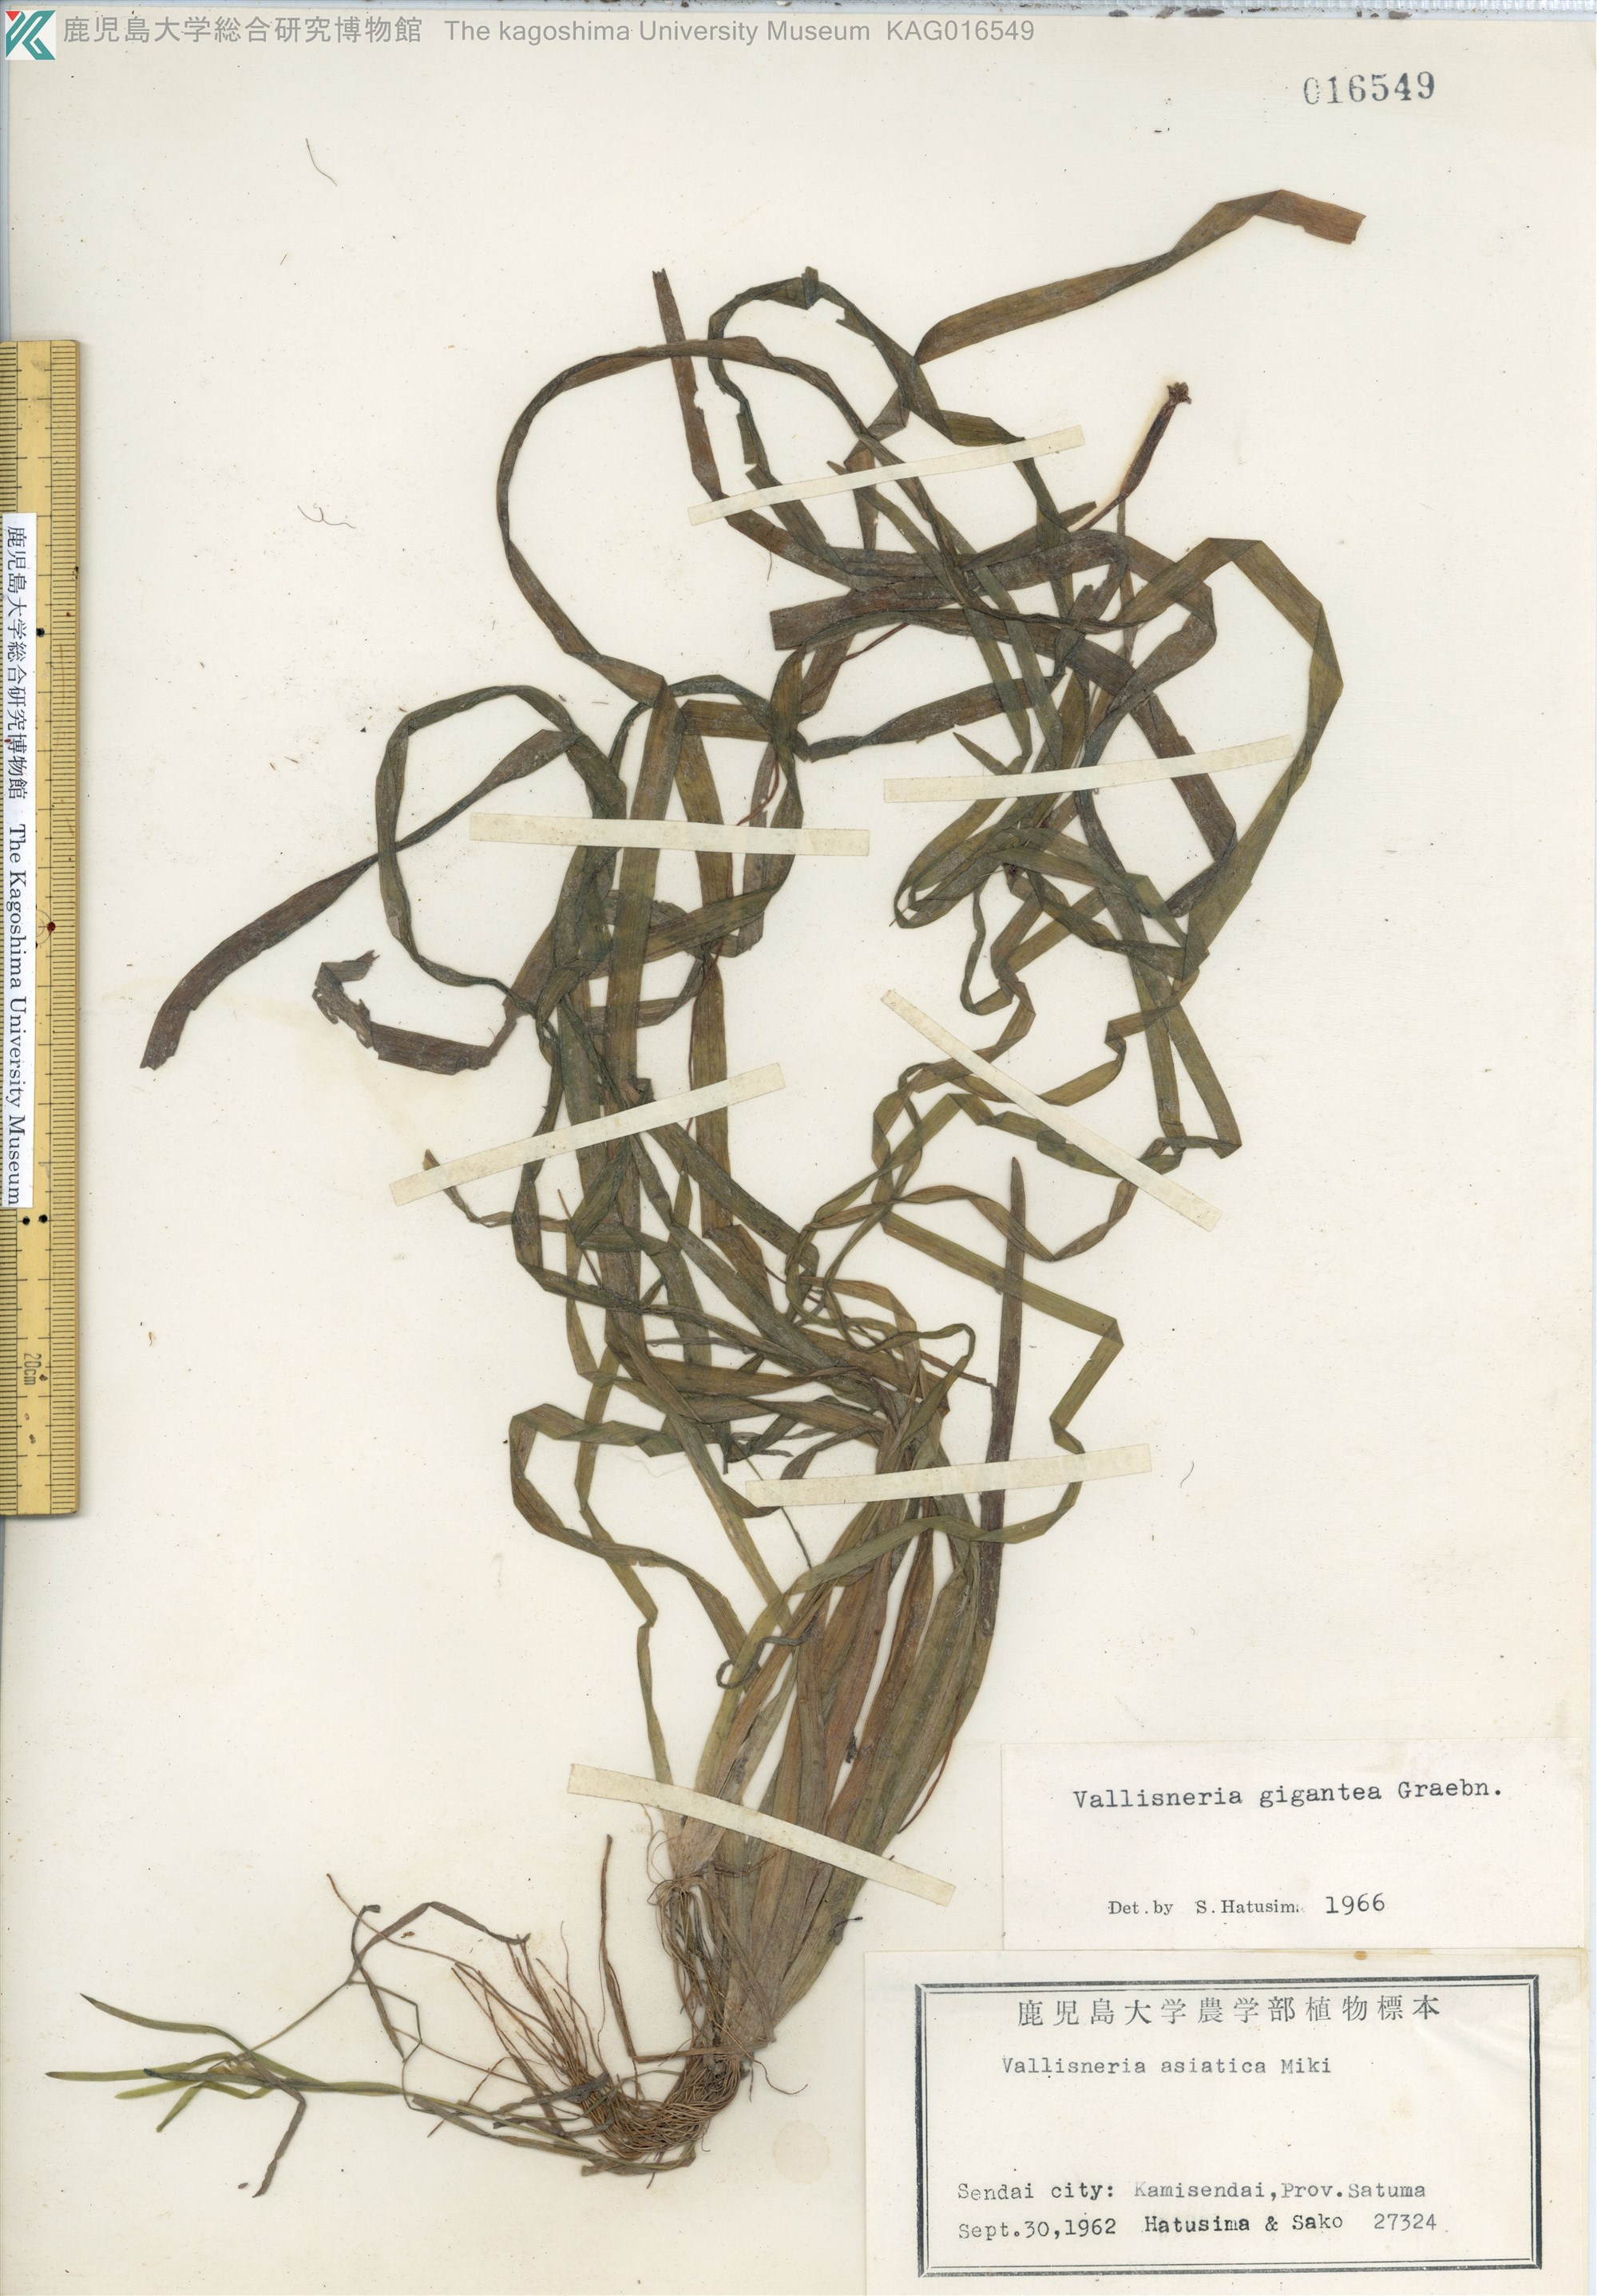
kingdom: Plantae
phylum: Tracheophyta
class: Liliopsida
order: Alismatales
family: Hydrocharitaceae
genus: Vallisneria
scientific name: Vallisneria natans
